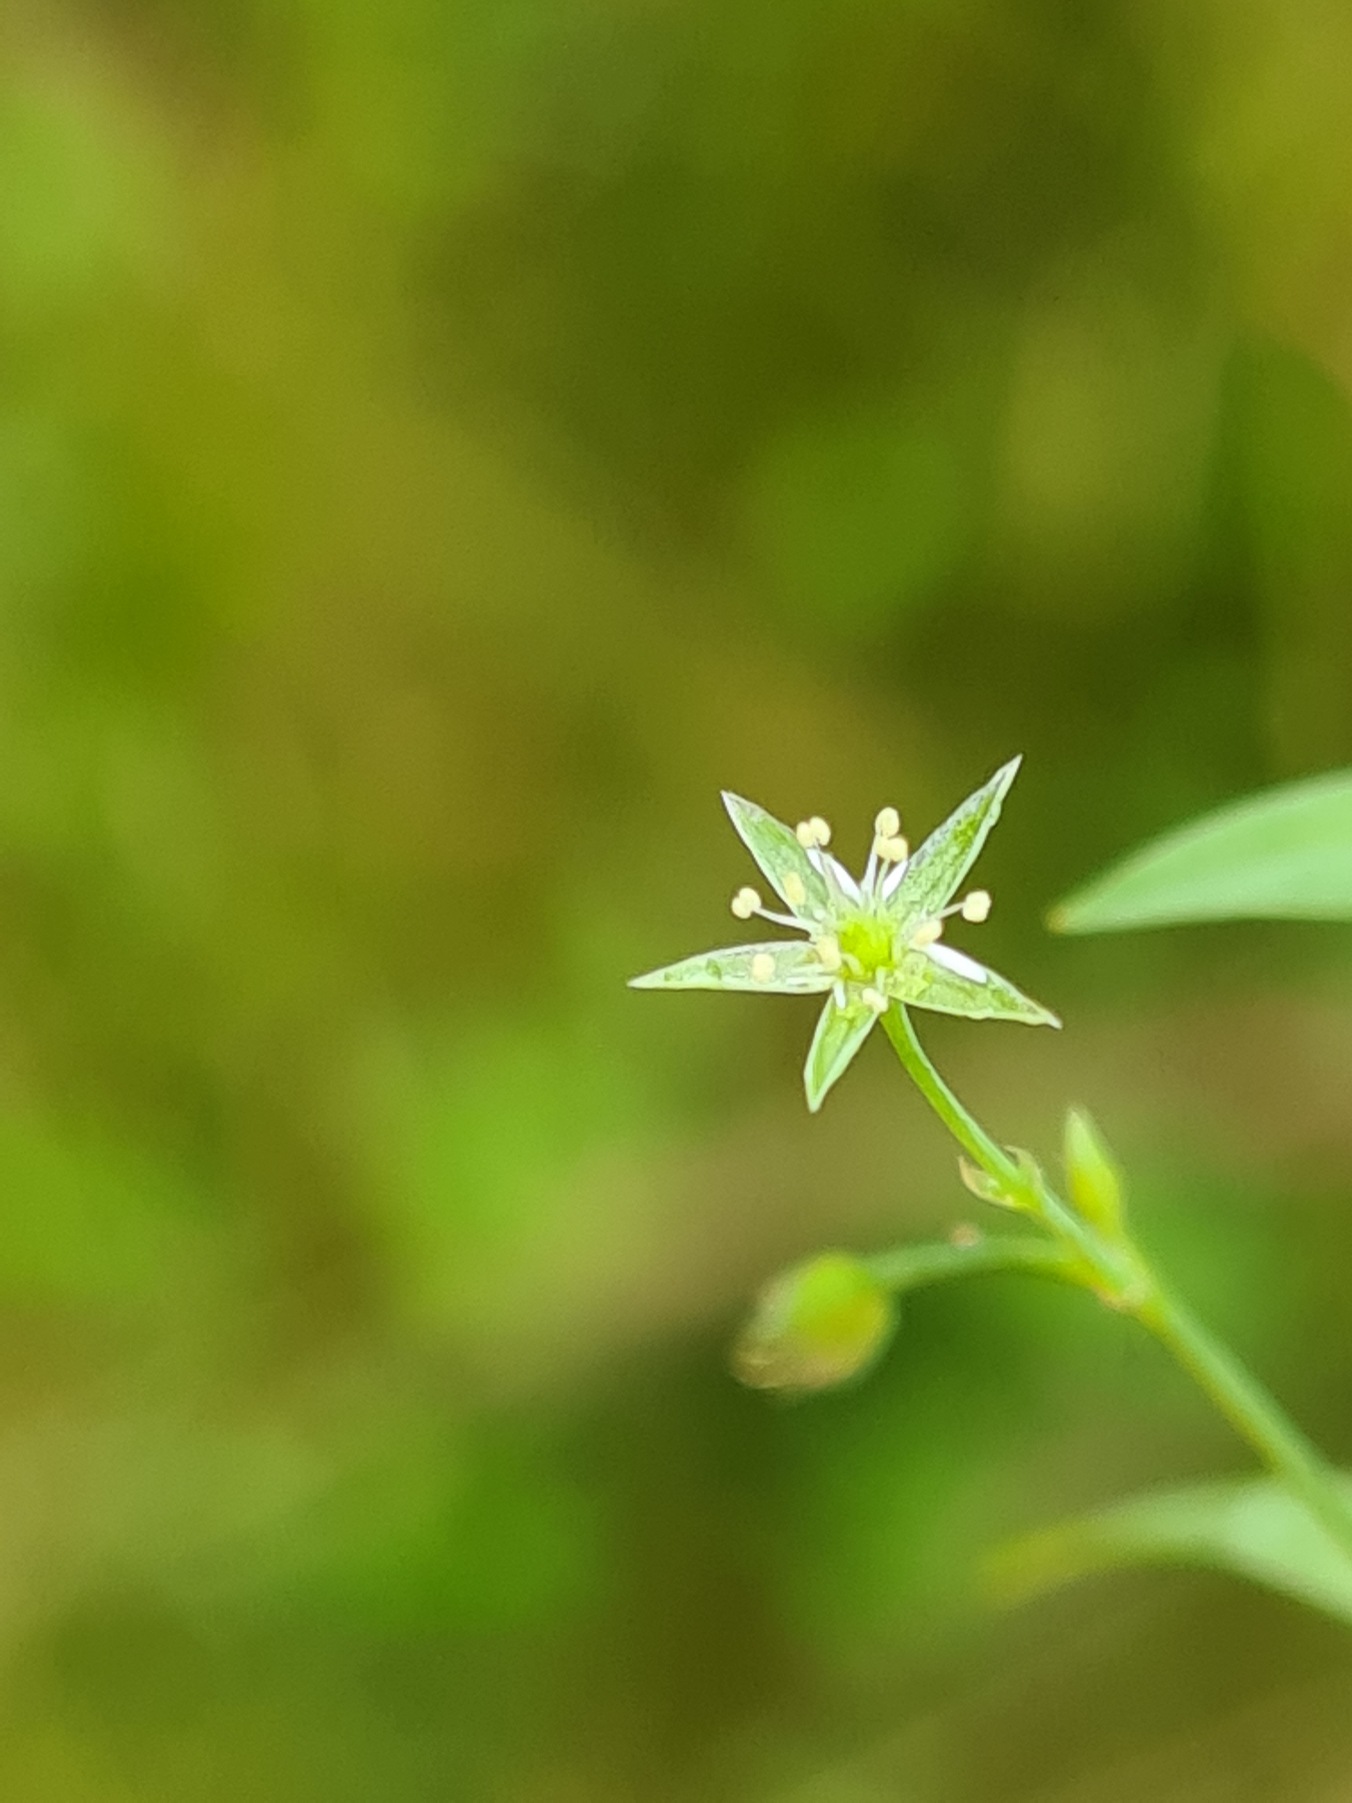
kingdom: Plantae
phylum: Tracheophyta
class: Magnoliopsida
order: Caryophyllales
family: Caryophyllaceae
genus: Stellaria
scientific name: Stellaria alsine
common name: Sump-fladstjerne
